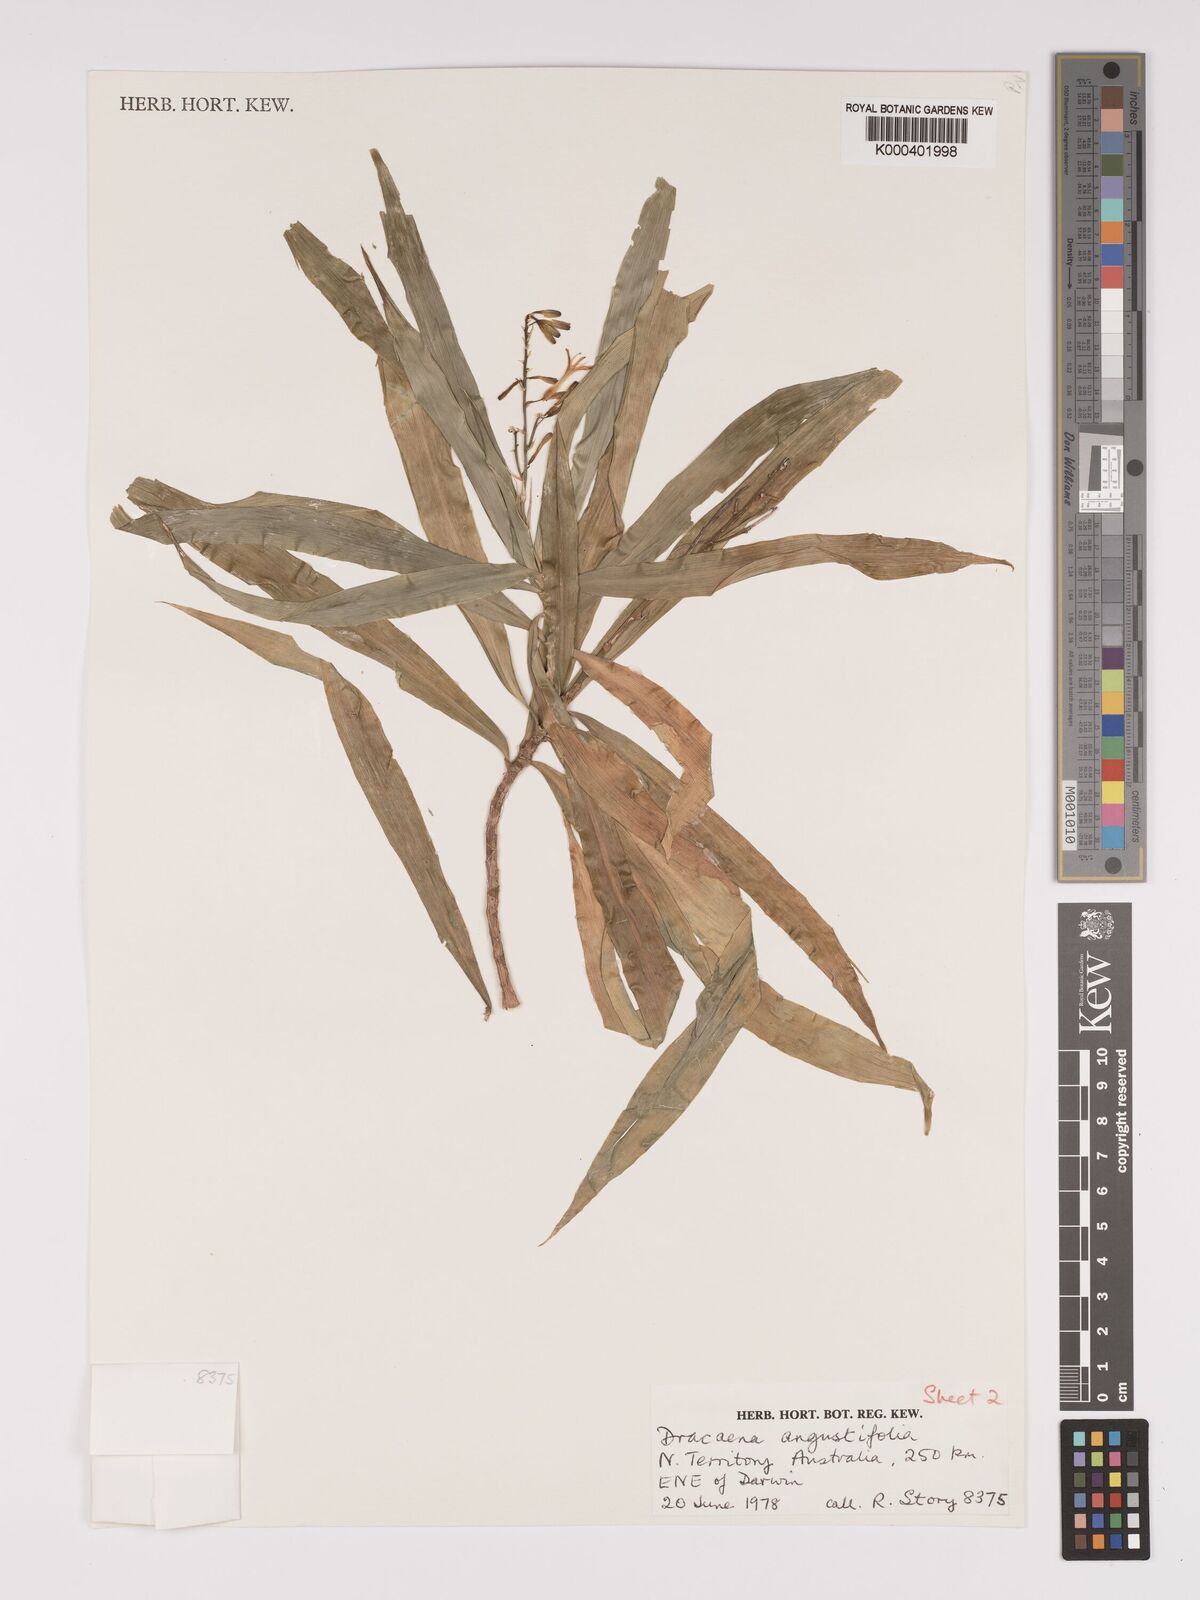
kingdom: Plantae
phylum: Tracheophyta
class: Liliopsida
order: Asparagales
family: Asparagaceae
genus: Dracaena
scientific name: Dracaena angustifolia
